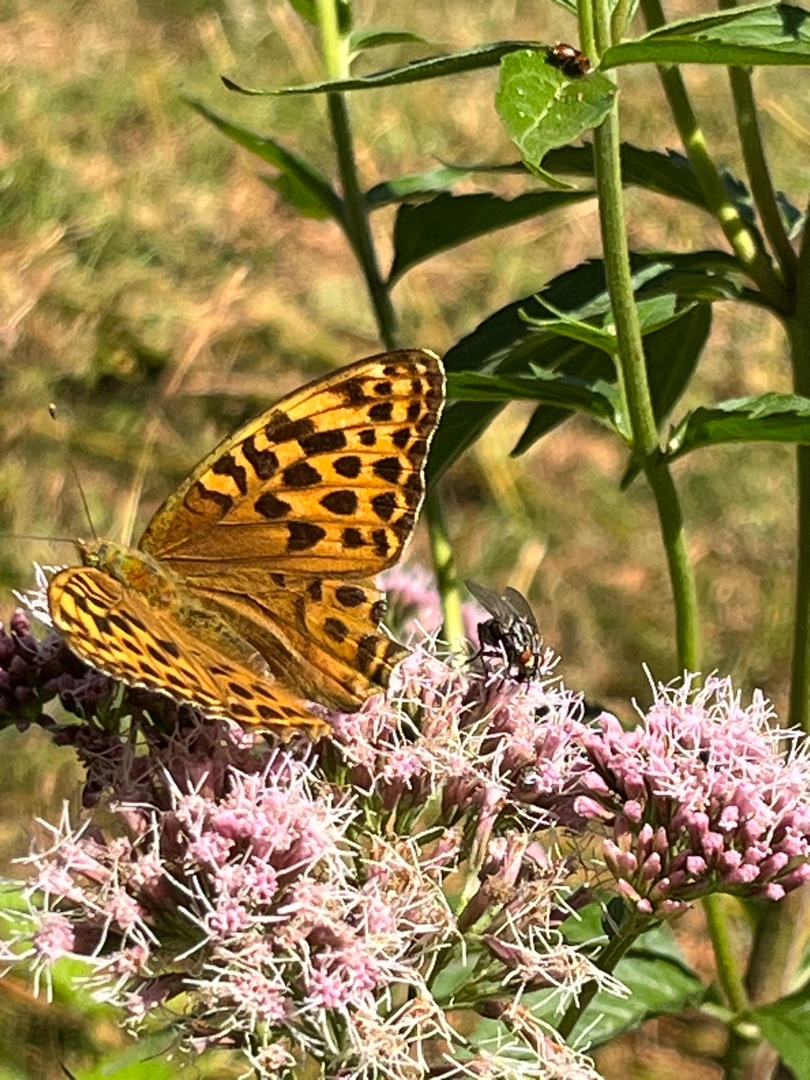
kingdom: Animalia
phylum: Arthropoda
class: Insecta
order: Lepidoptera
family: Nymphalidae
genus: Argynnis
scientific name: Argynnis paphia
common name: Kejserkåbe
